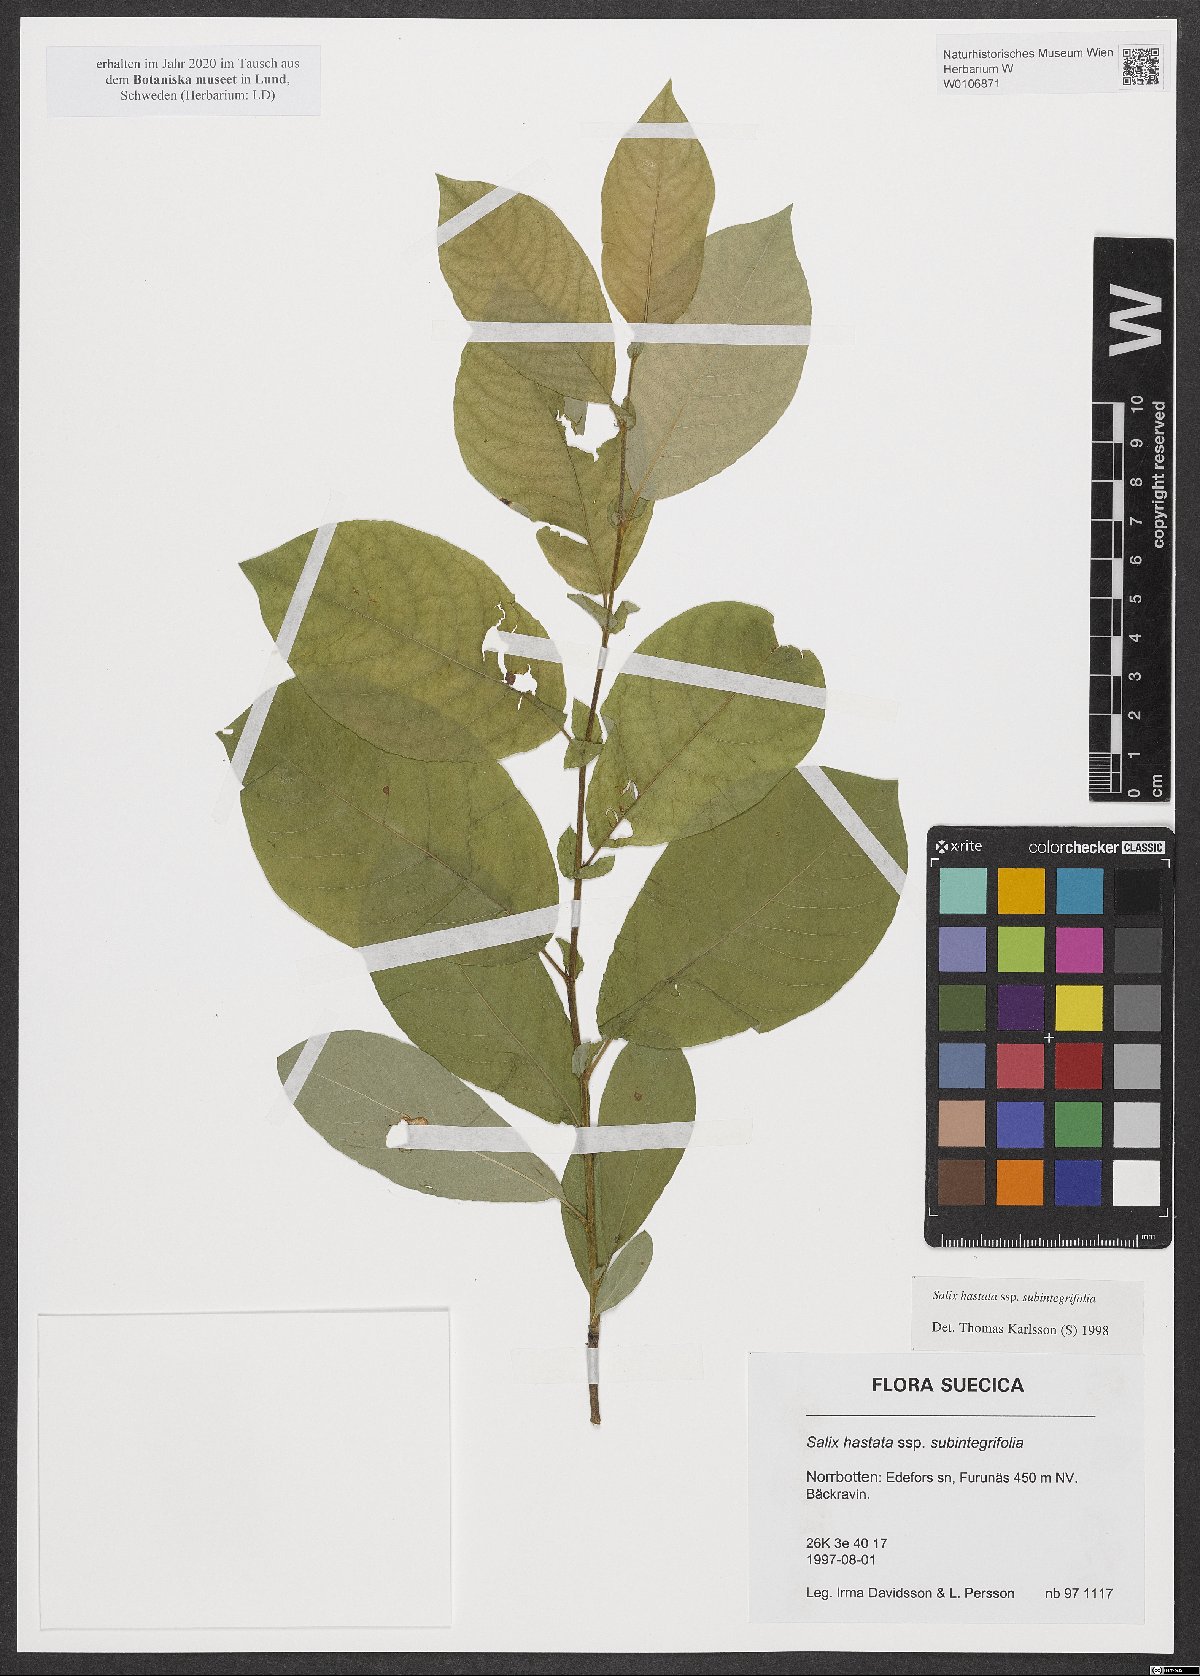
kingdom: Plantae
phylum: Tracheophyta
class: Magnoliopsida
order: Malpighiales
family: Salicaceae
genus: Salix
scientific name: Salix hastata
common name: Halberd willow
